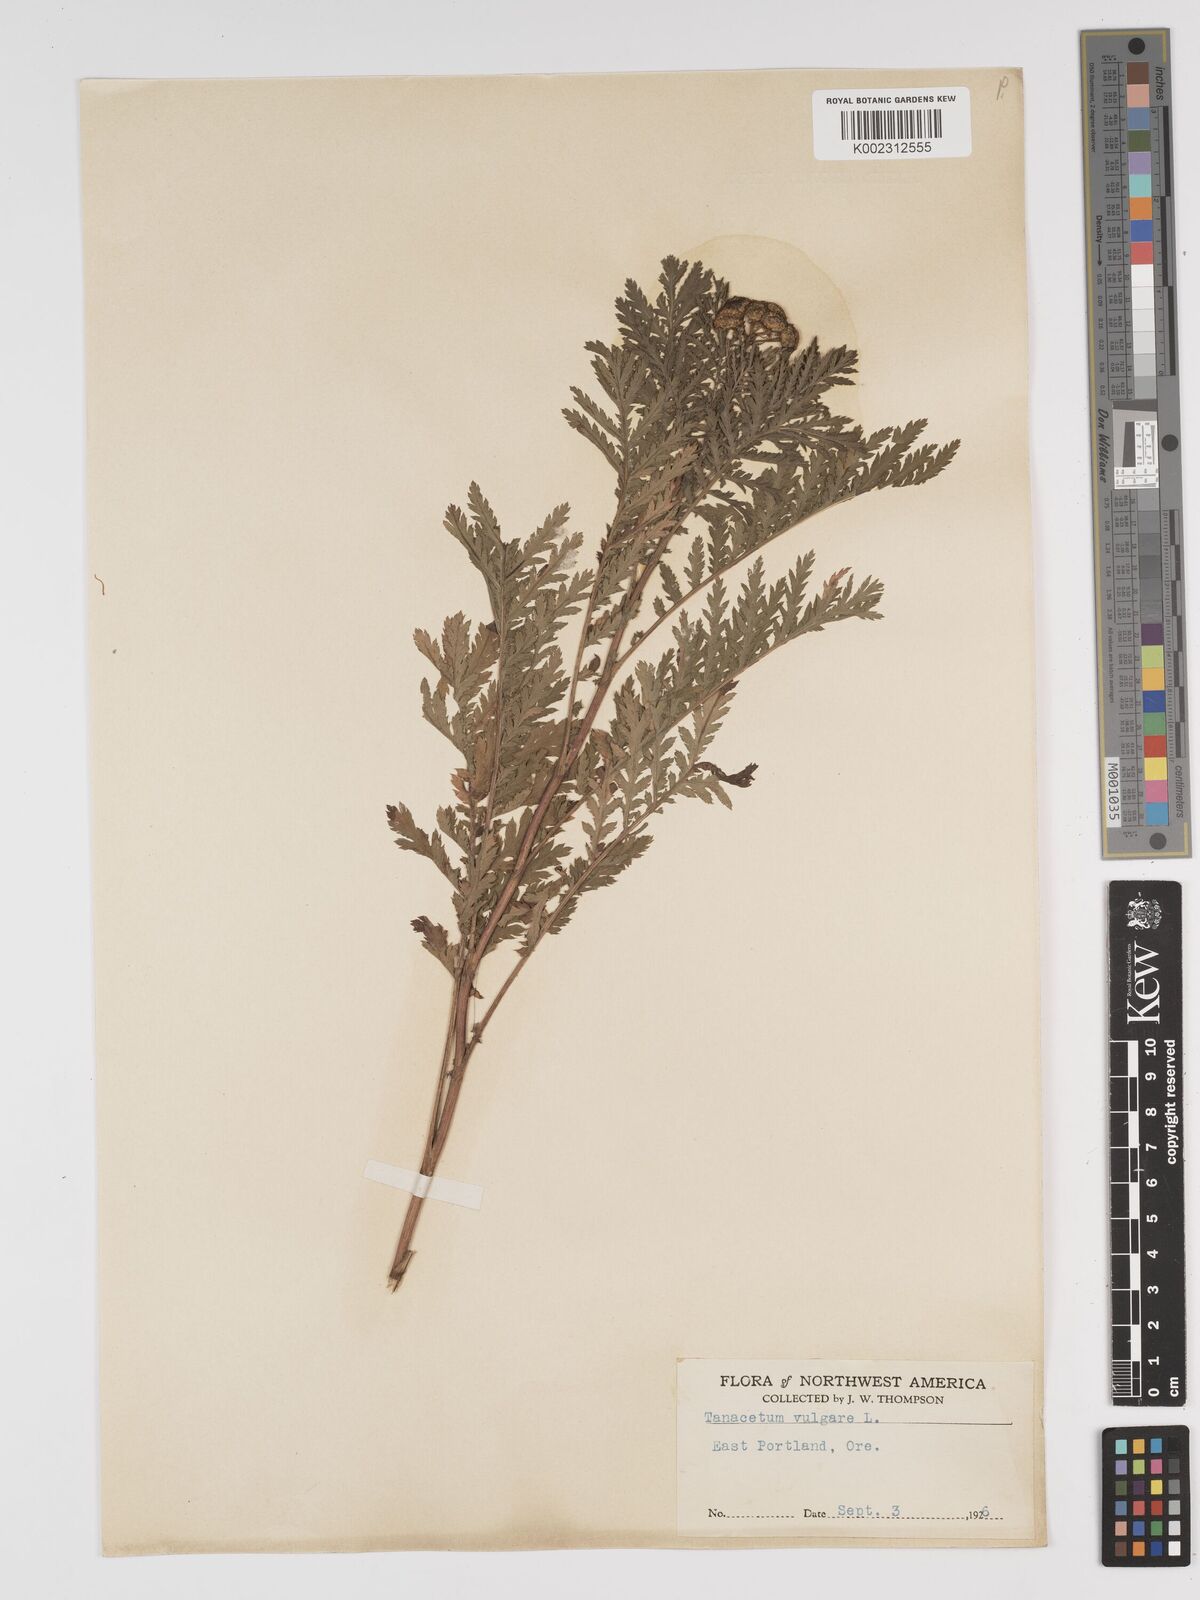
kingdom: Plantae
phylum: Tracheophyta
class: Magnoliopsida
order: Asterales
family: Asteraceae
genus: Tanacetum
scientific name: Tanacetum vulgare
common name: Common tansy
